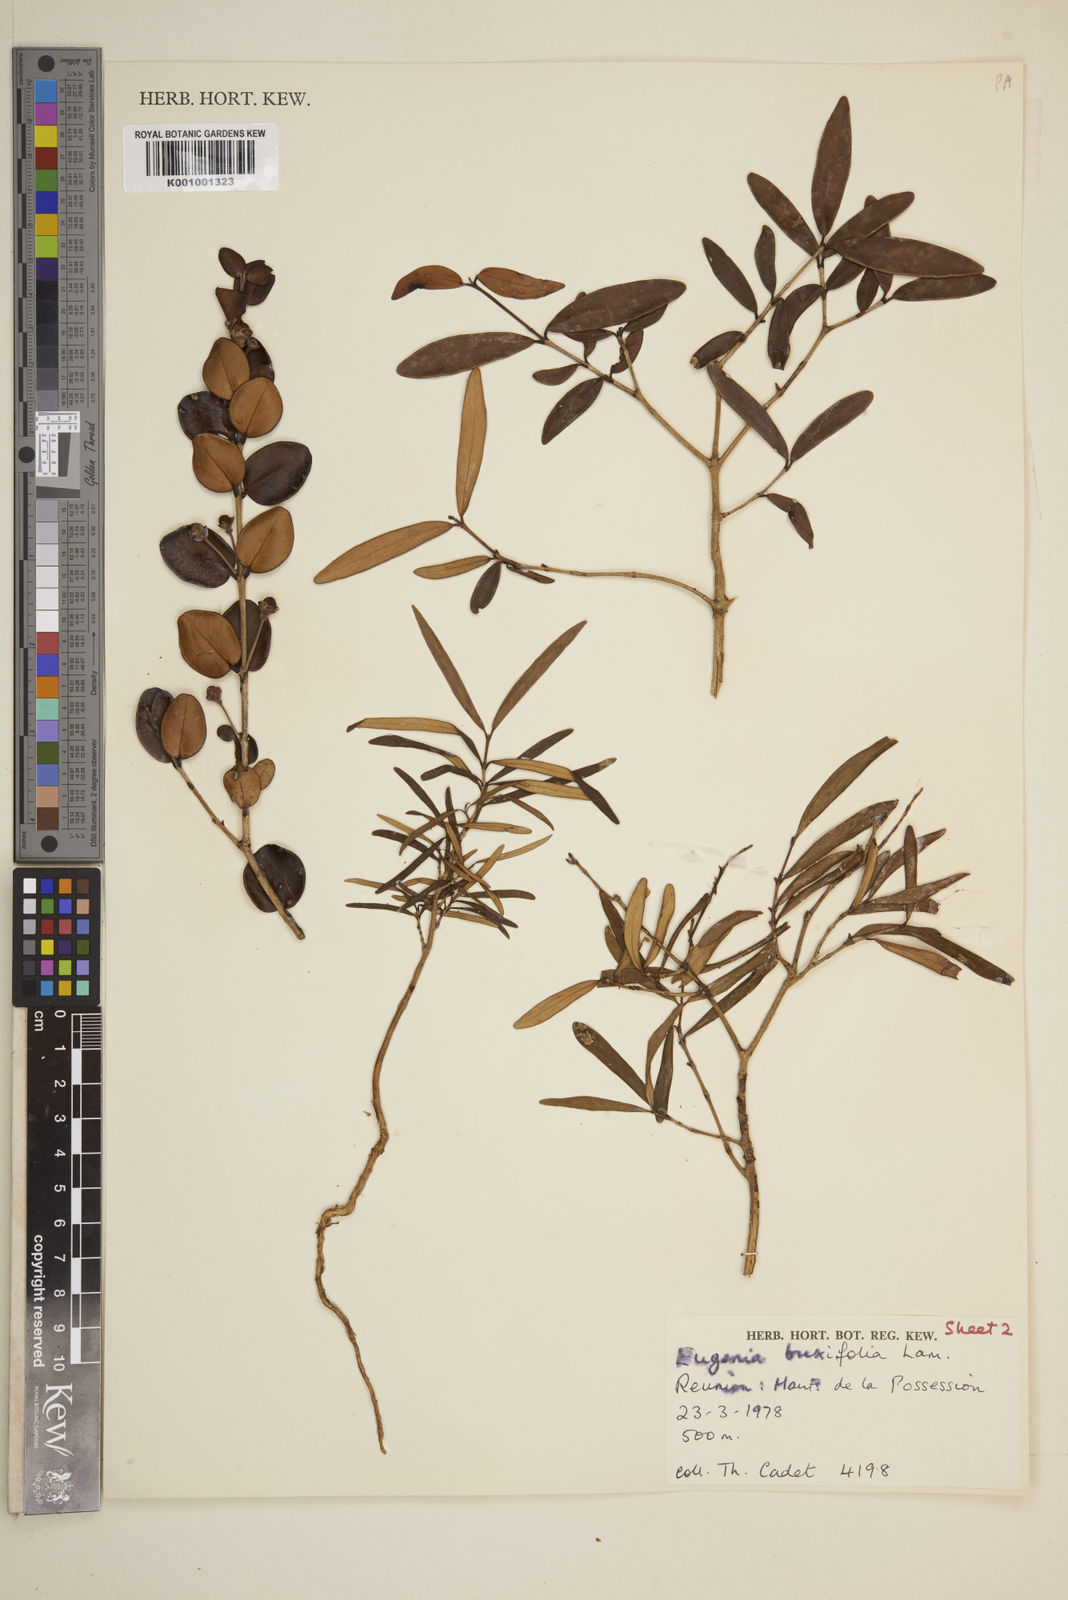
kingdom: Plantae
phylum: Tracheophyta
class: Magnoliopsida
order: Myrtales
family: Myrtaceae
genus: Eugenia
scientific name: Eugenia buxifolia
